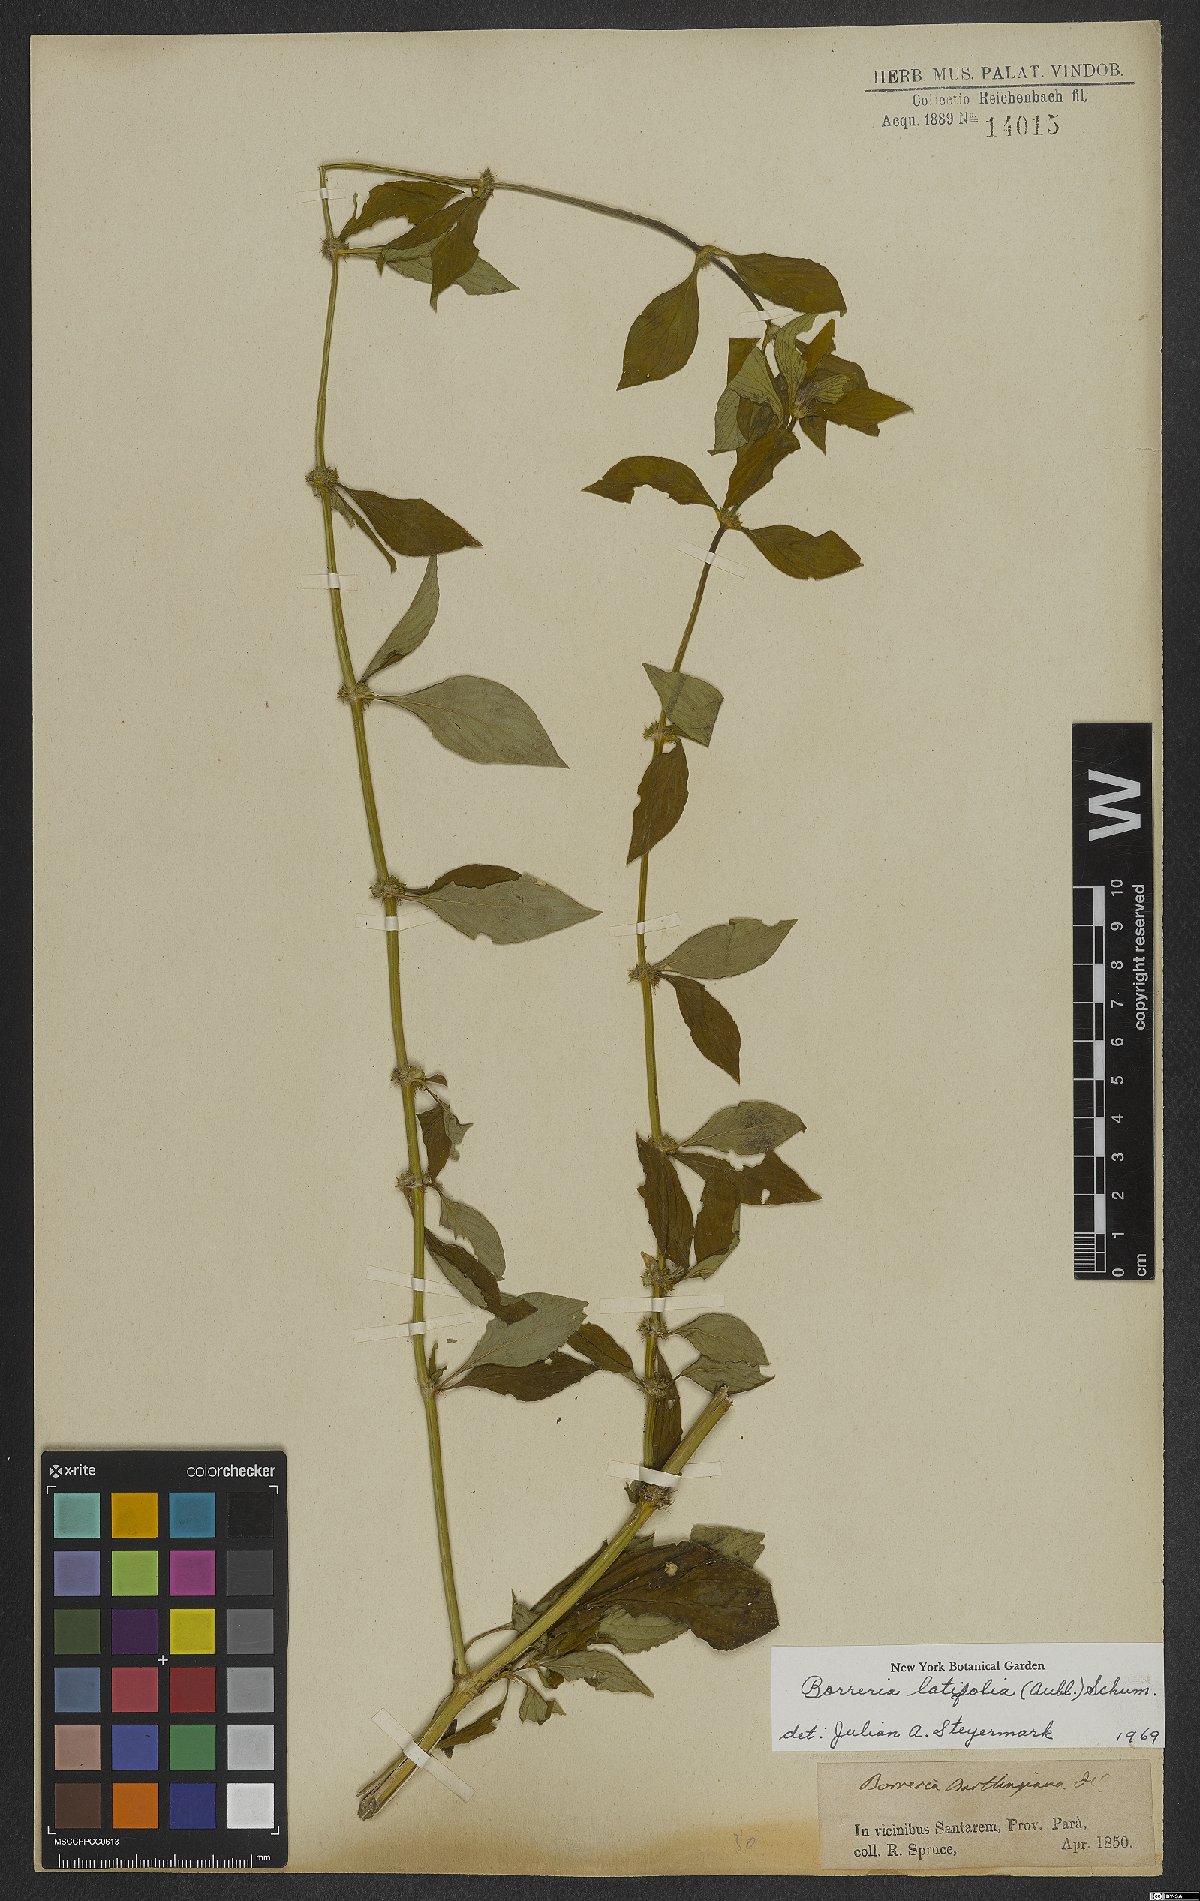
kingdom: Plantae
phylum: Tracheophyta
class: Magnoliopsida
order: Gentianales
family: Rubiaceae
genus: Spermacoce
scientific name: Spermacoce latifolia
